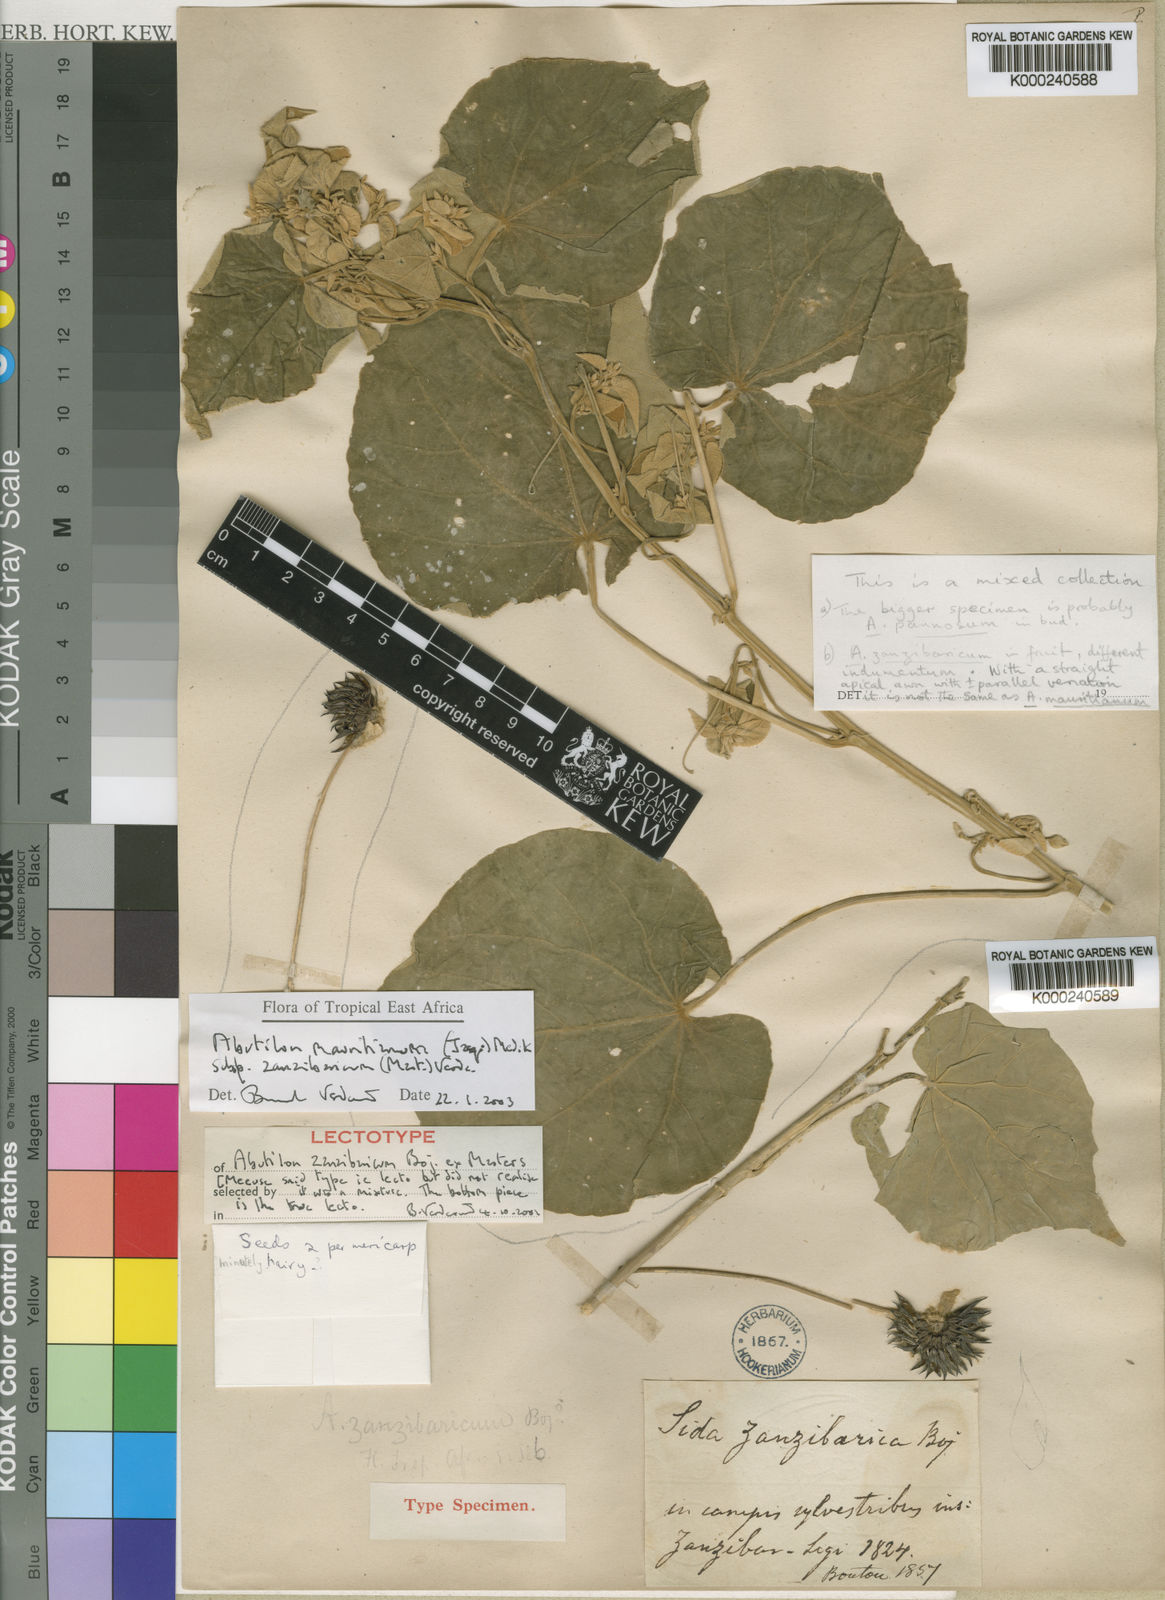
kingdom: Plantae
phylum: Tracheophyta
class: Magnoliopsida
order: Malvales
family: Malvaceae
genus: Abutilon
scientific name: Abutilon mauritianum
